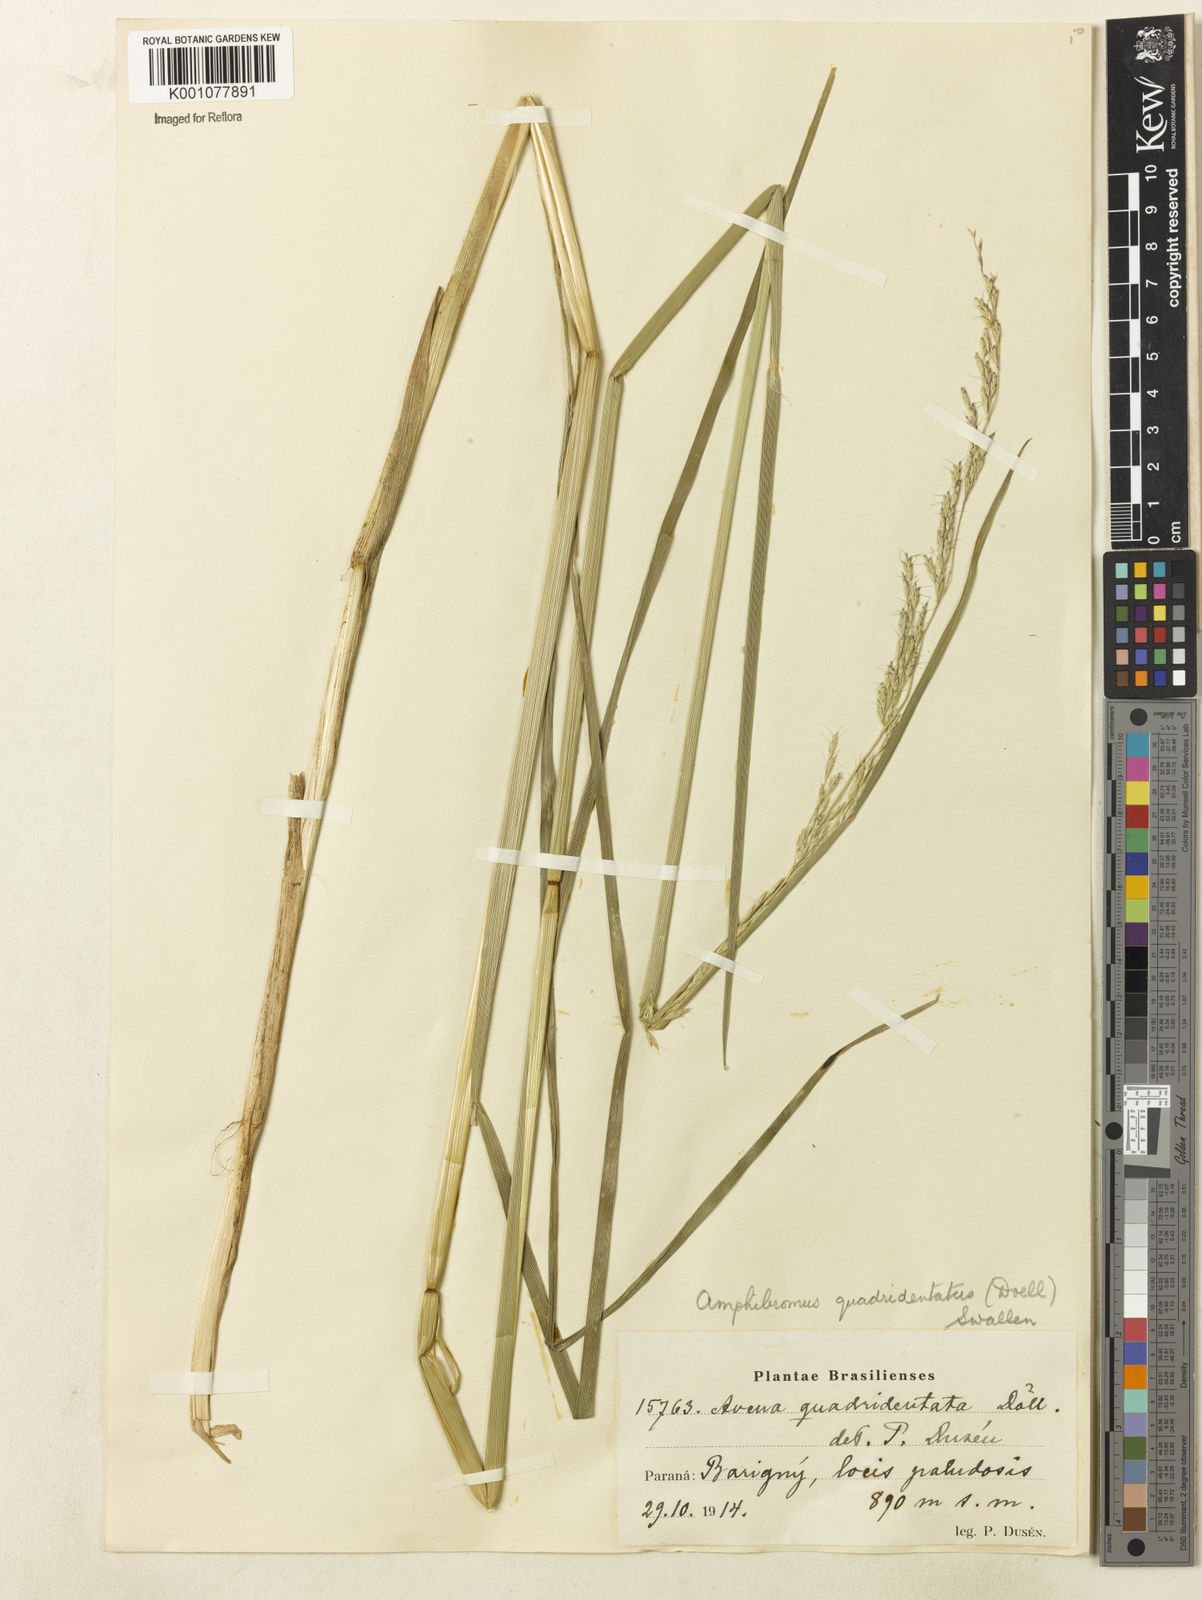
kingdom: Plantae
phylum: Tracheophyta
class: Liliopsida
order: Poales
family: Poaceae
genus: Helictotrichon
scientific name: Helictotrichon
